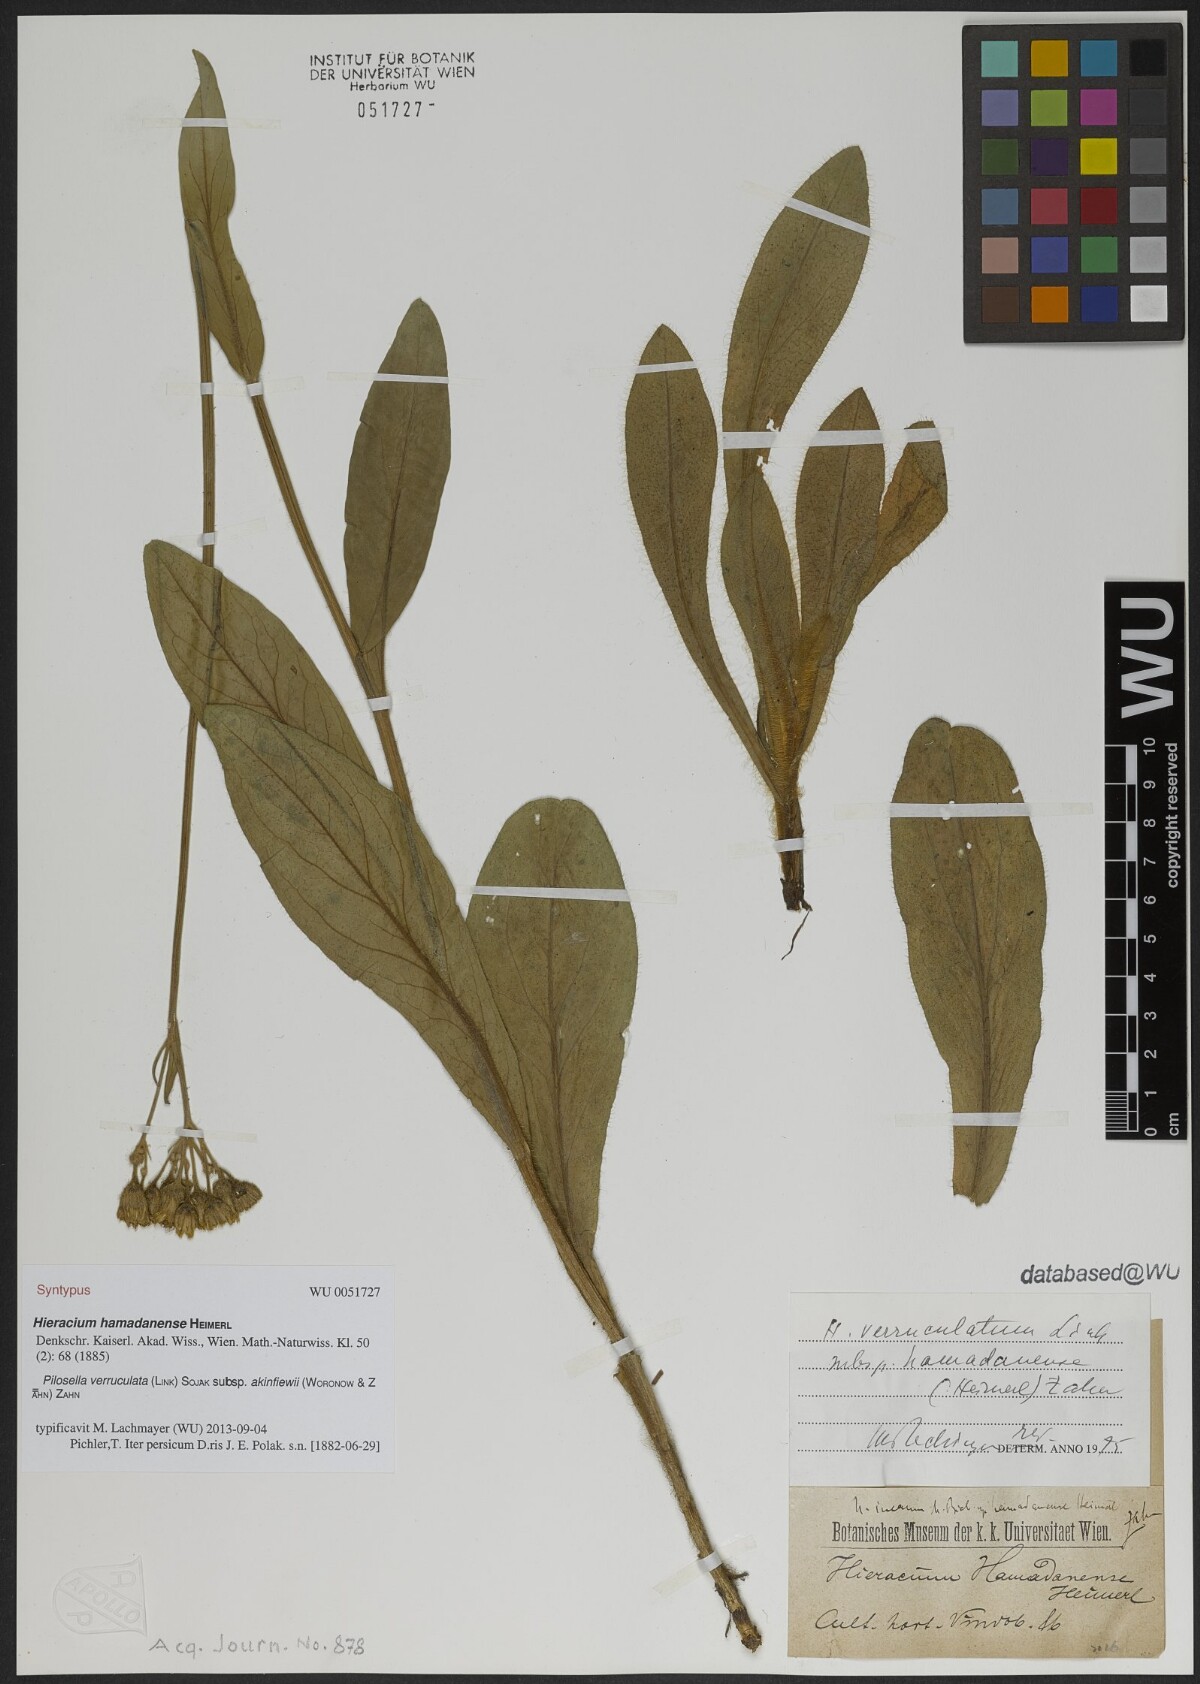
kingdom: Plantae
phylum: Tracheophyta
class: Magnoliopsida
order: Asterales
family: Asteraceae
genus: Pilosella
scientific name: Pilosella verruculata
